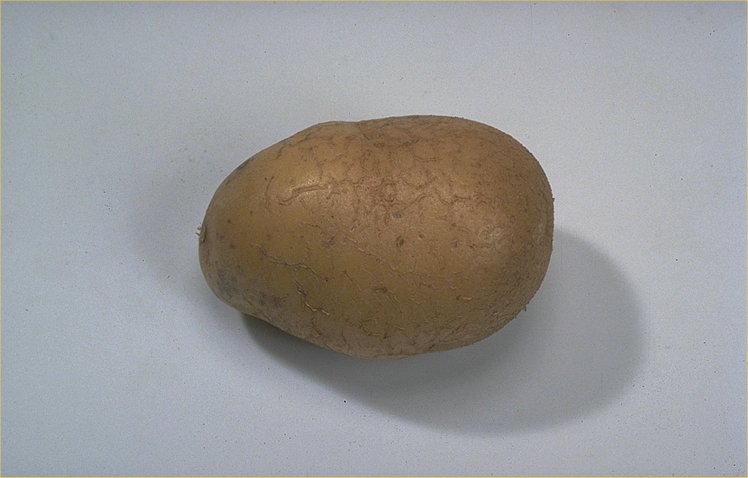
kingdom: Plantae
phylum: Tracheophyta
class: Magnoliopsida
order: Solanales
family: Solanaceae
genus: Solanum
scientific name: Solanum tuberosum
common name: Potato
